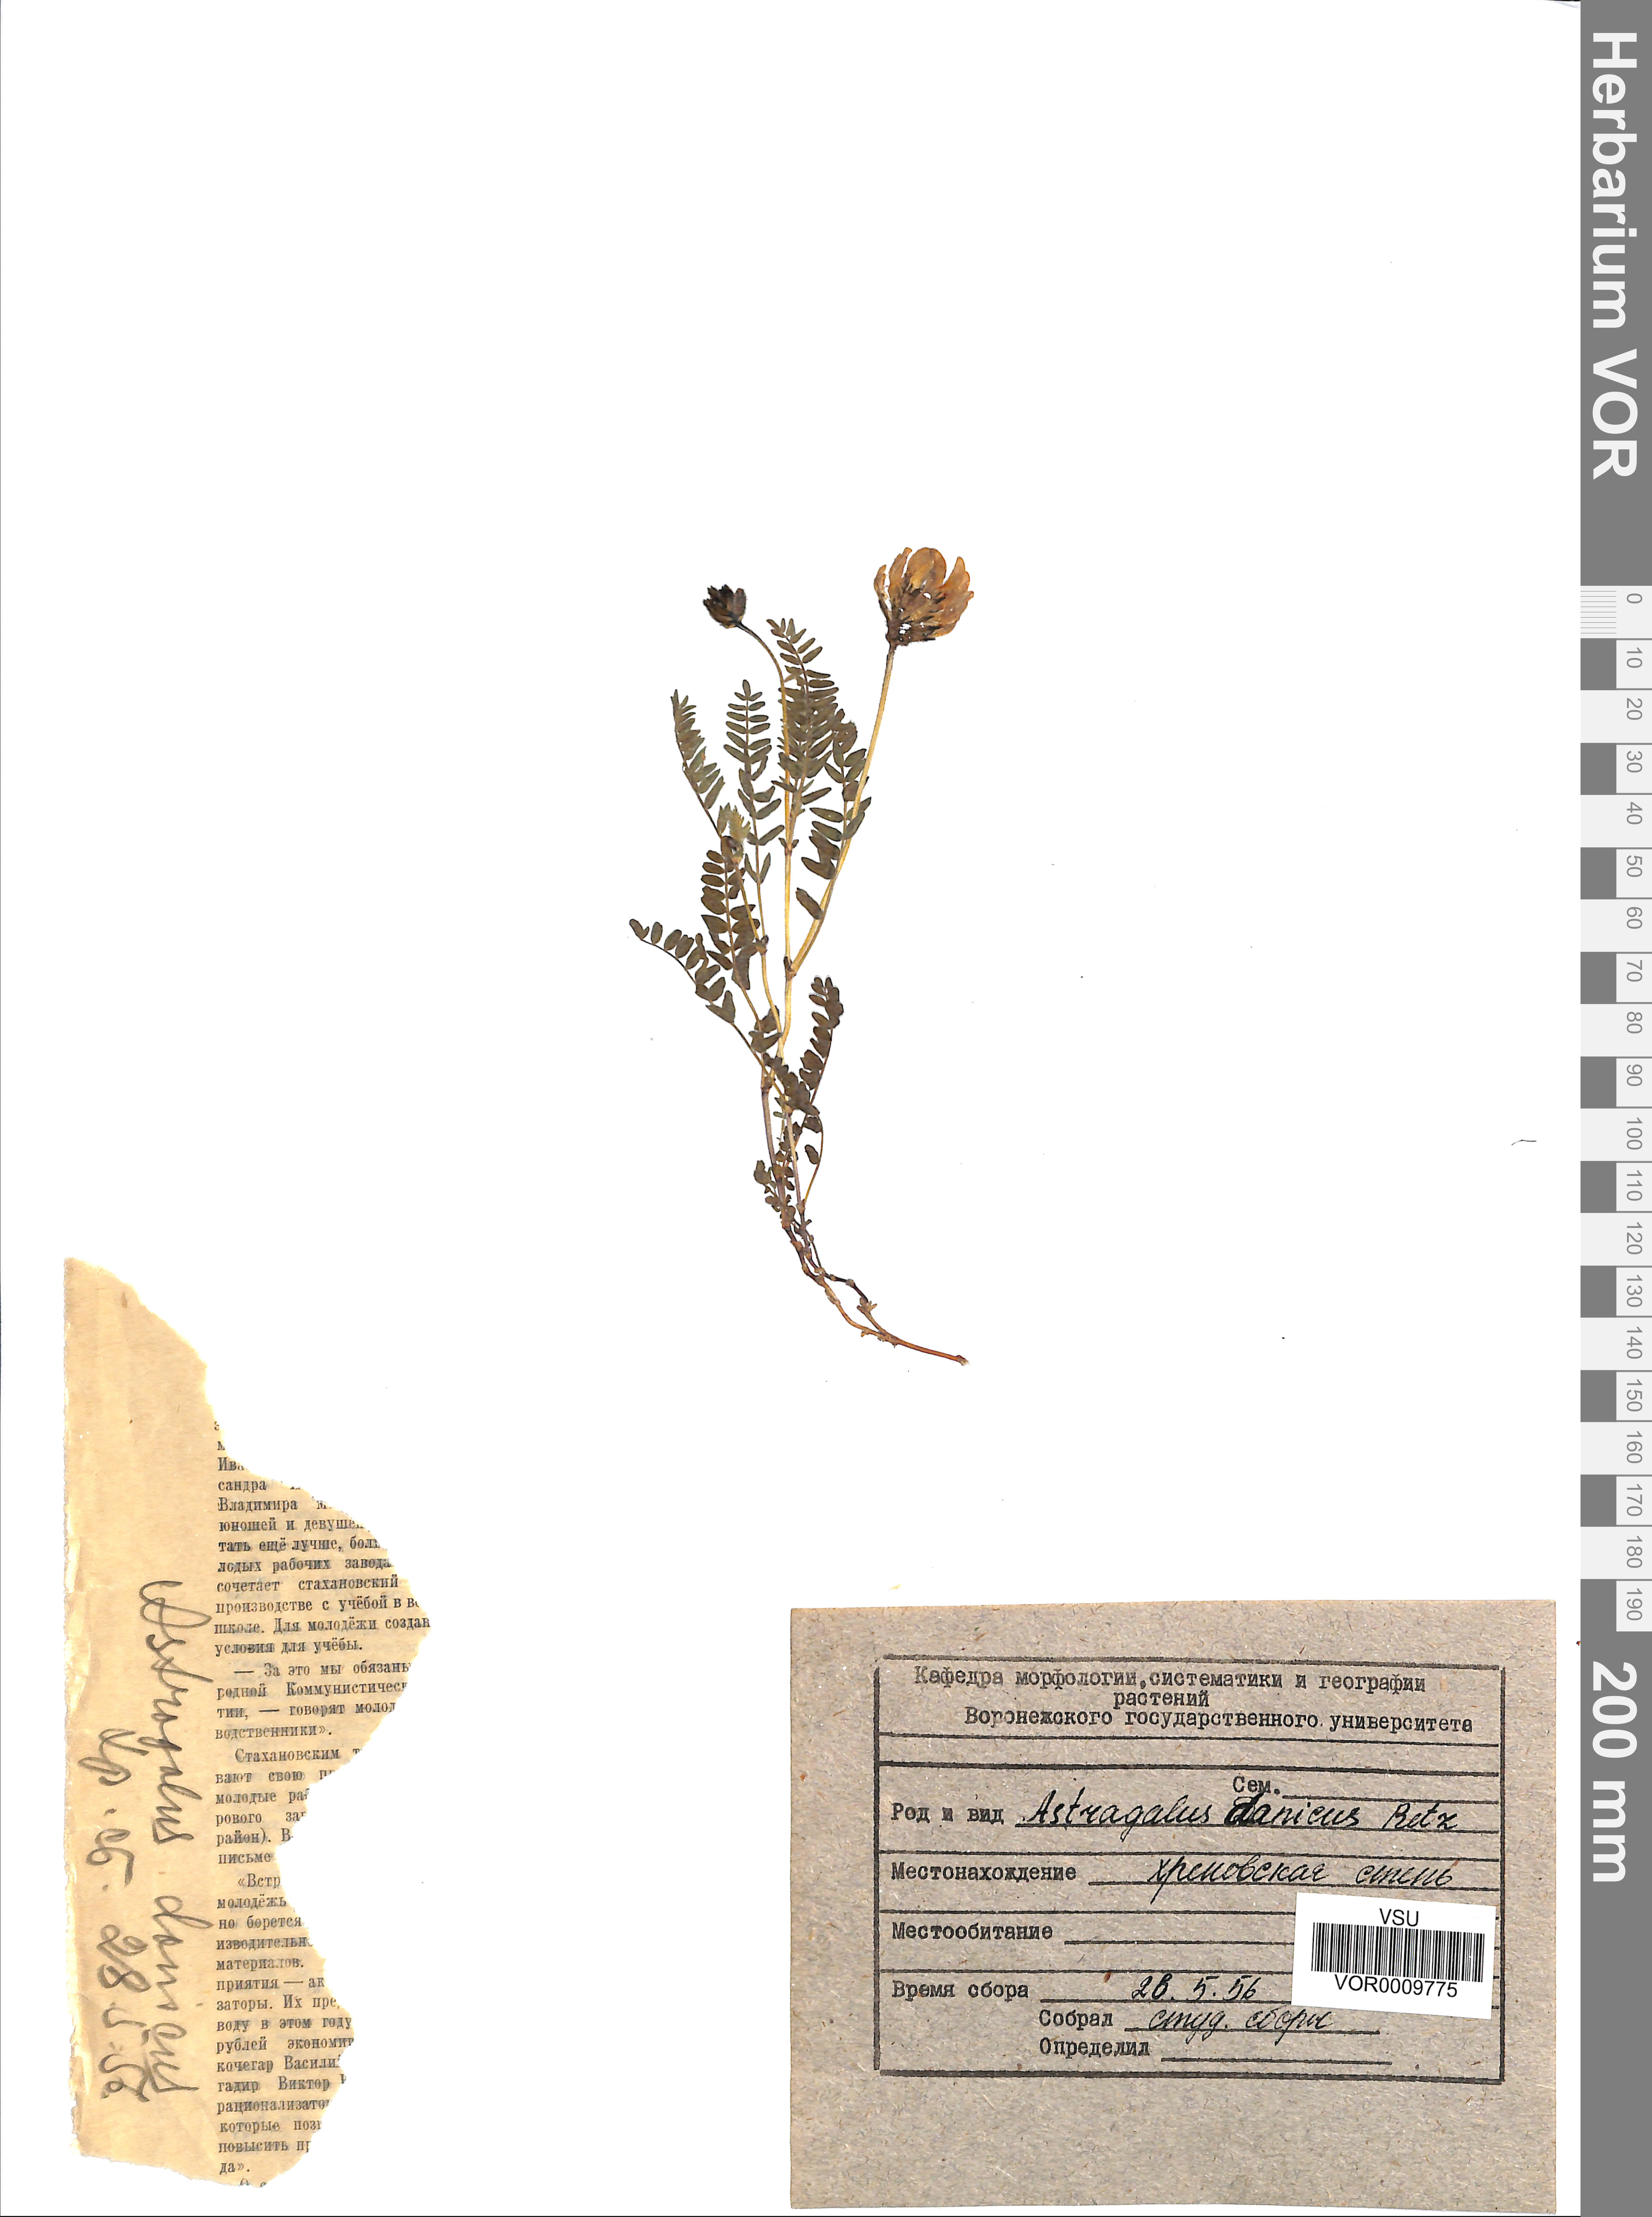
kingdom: Plantae
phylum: Tracheophyta
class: Magnoliopsida
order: Fabales
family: Fabaceae
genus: Astragalus
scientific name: Astragalus danicus
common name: Purple milk-vetch
